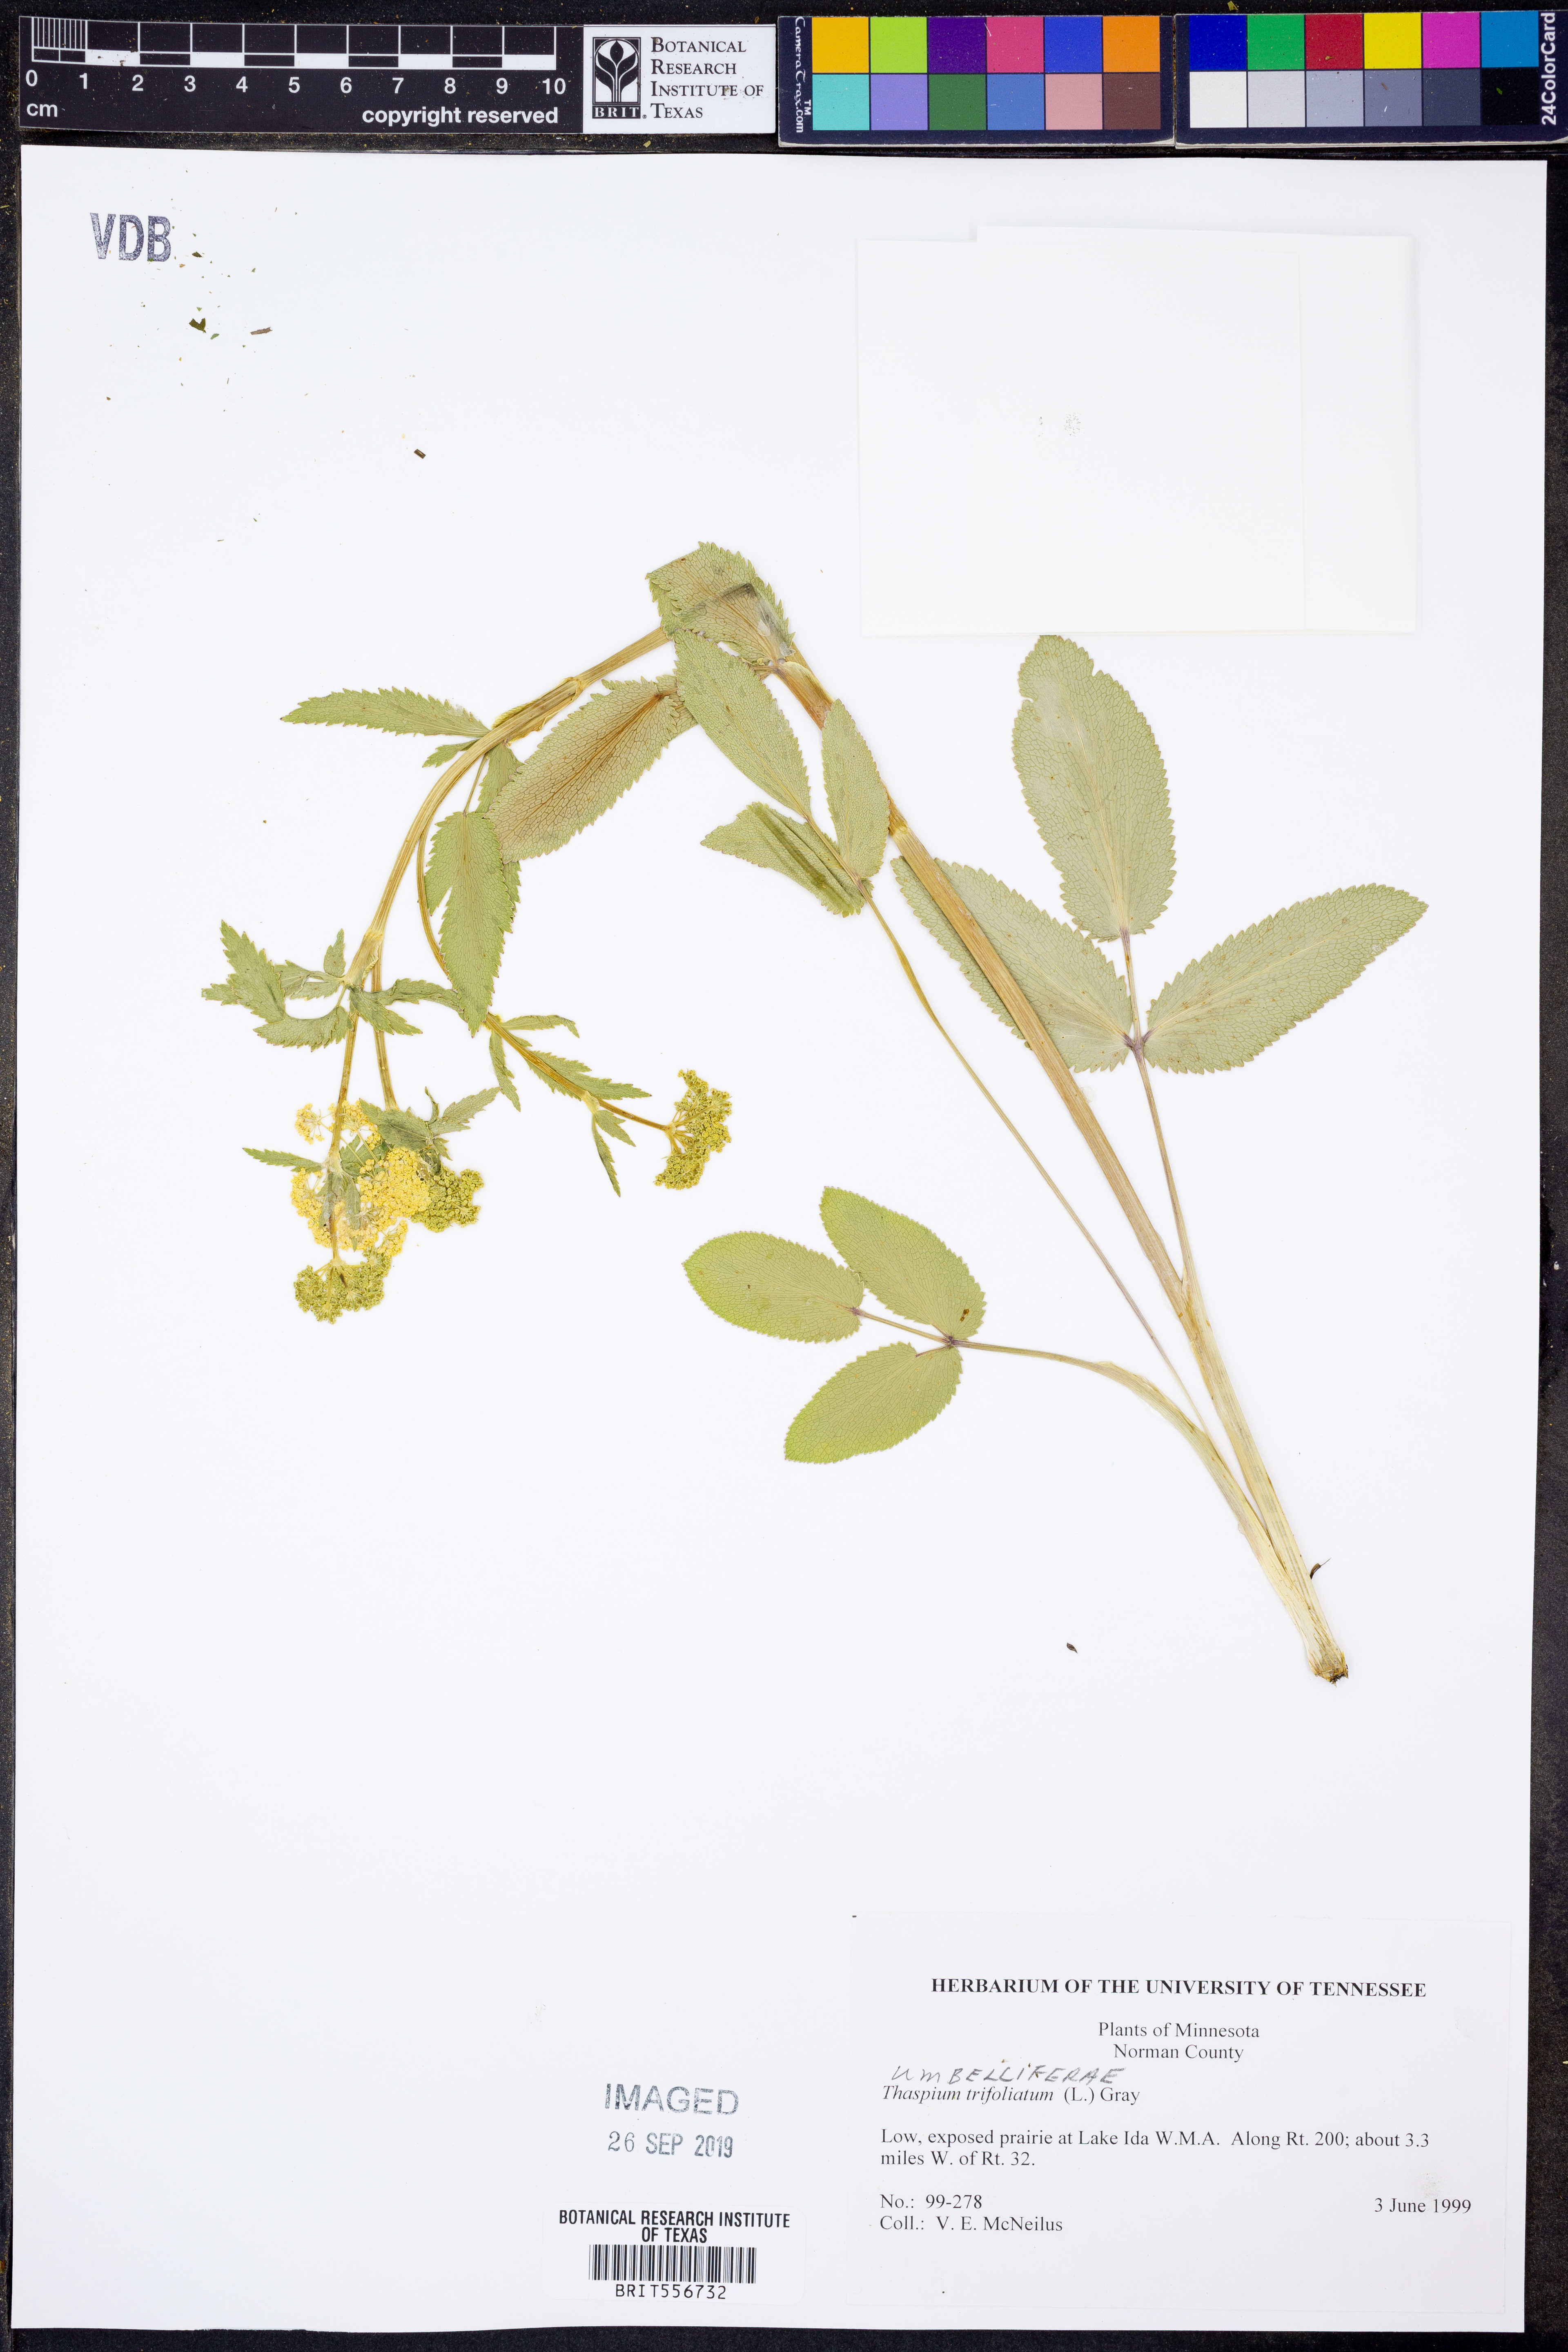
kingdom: Plantae
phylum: Tracheophyta
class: Magnoliopsida
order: Apiales
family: Apiaceae
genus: Thaspium
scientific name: Thaspium trifoliatum
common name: Purple meadow-parsnip
